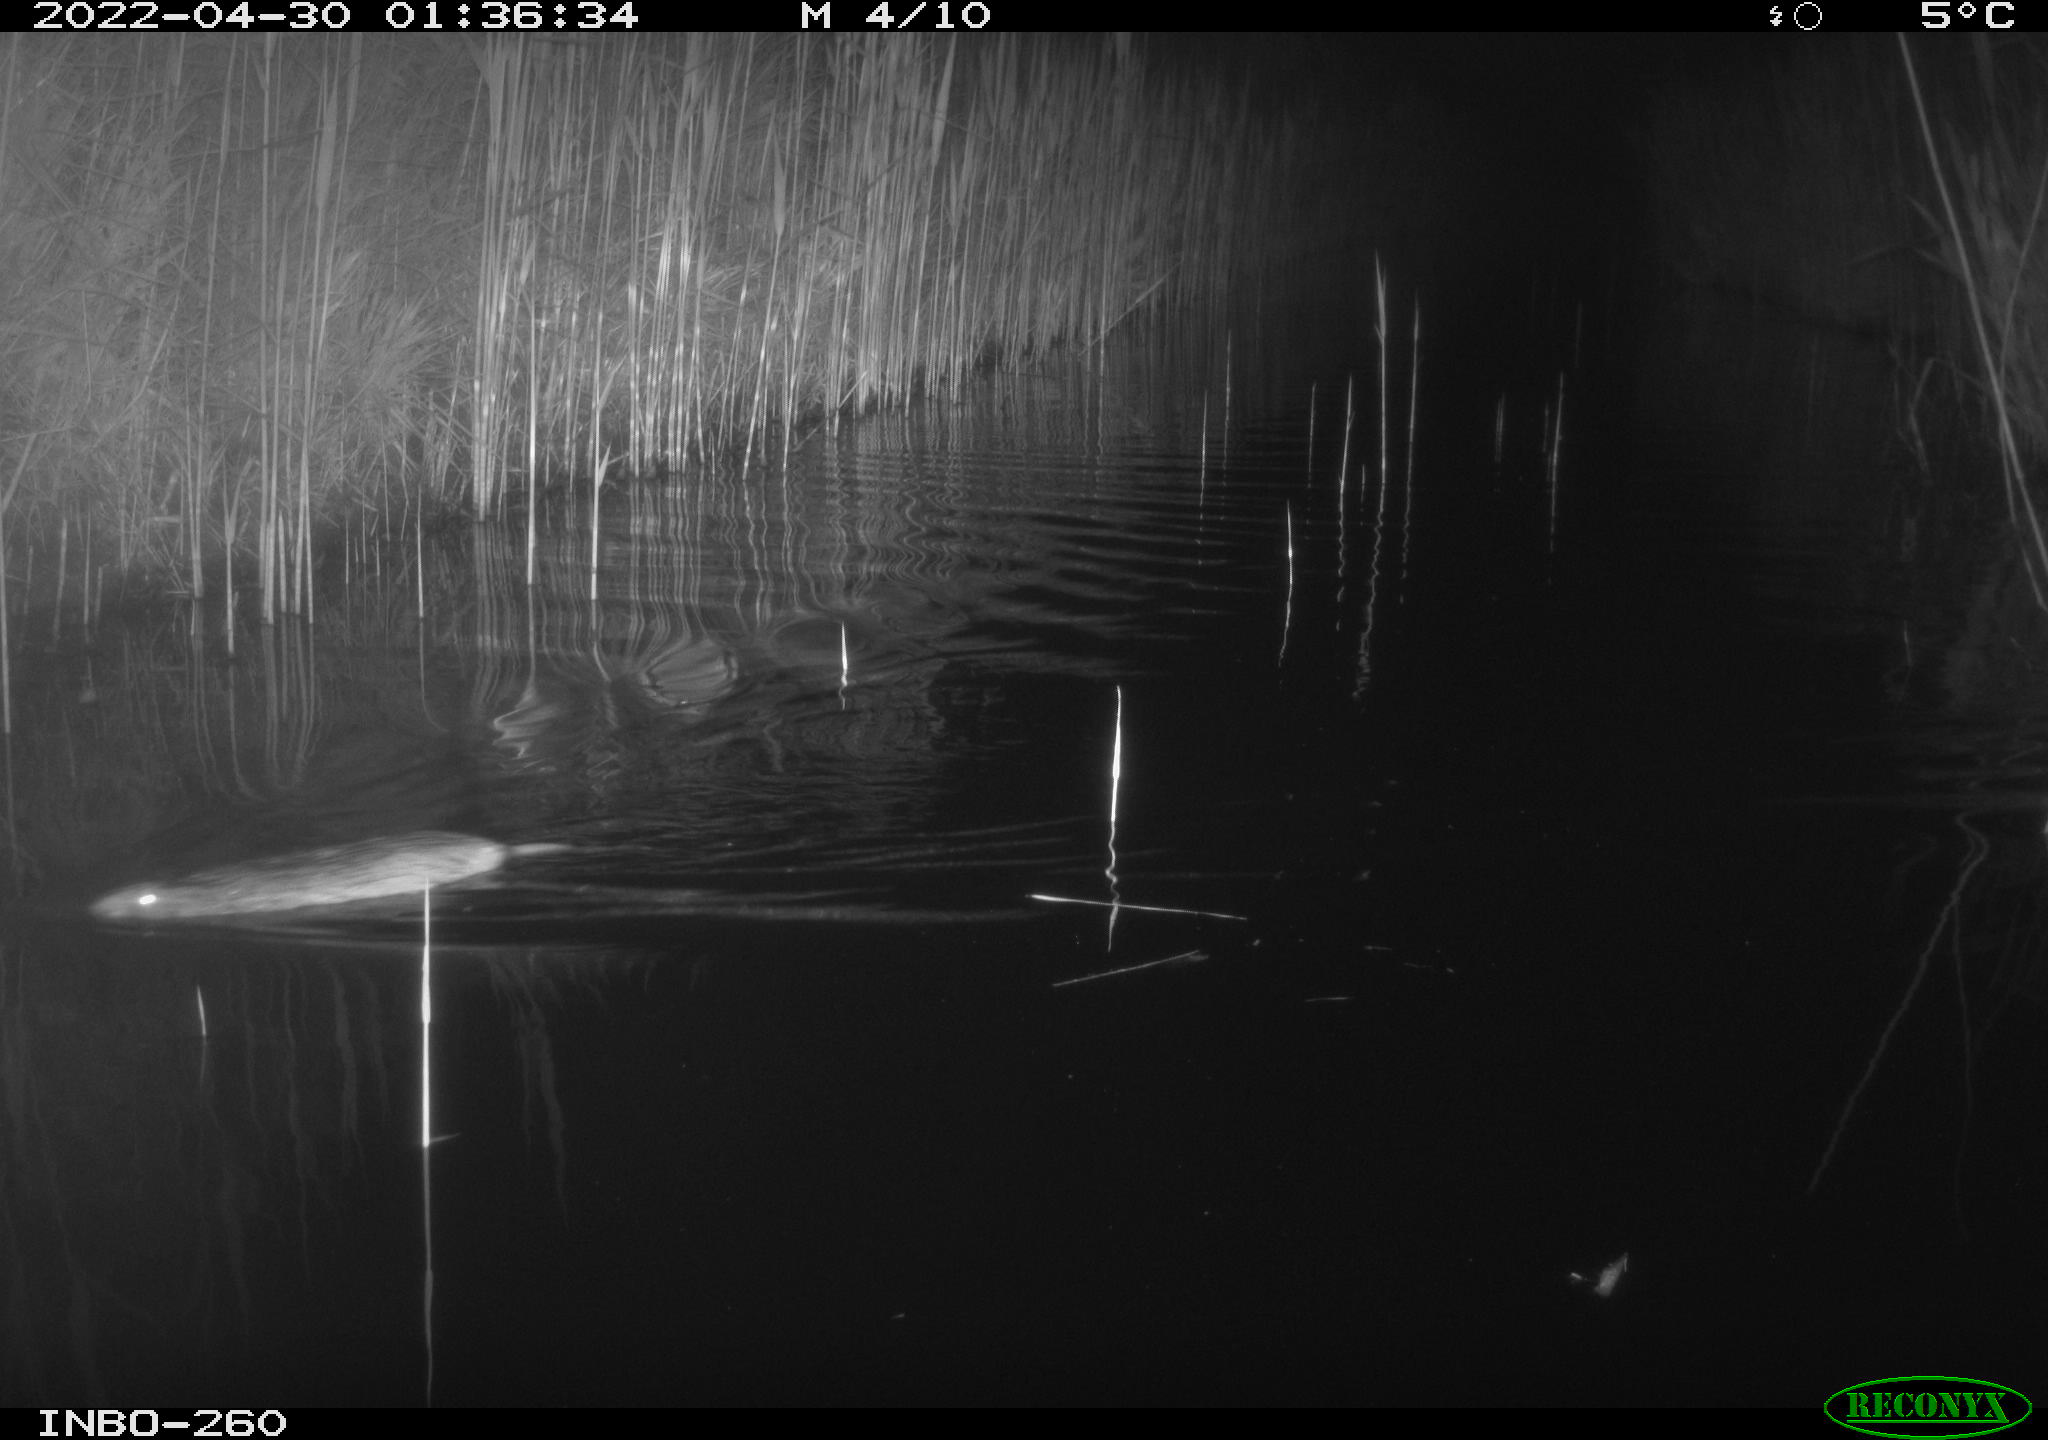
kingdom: Animalia
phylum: Chordata
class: Mammalia
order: Rodentia
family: Muridae
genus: Rattus
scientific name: Rattus norvegicus
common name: Brown rat
